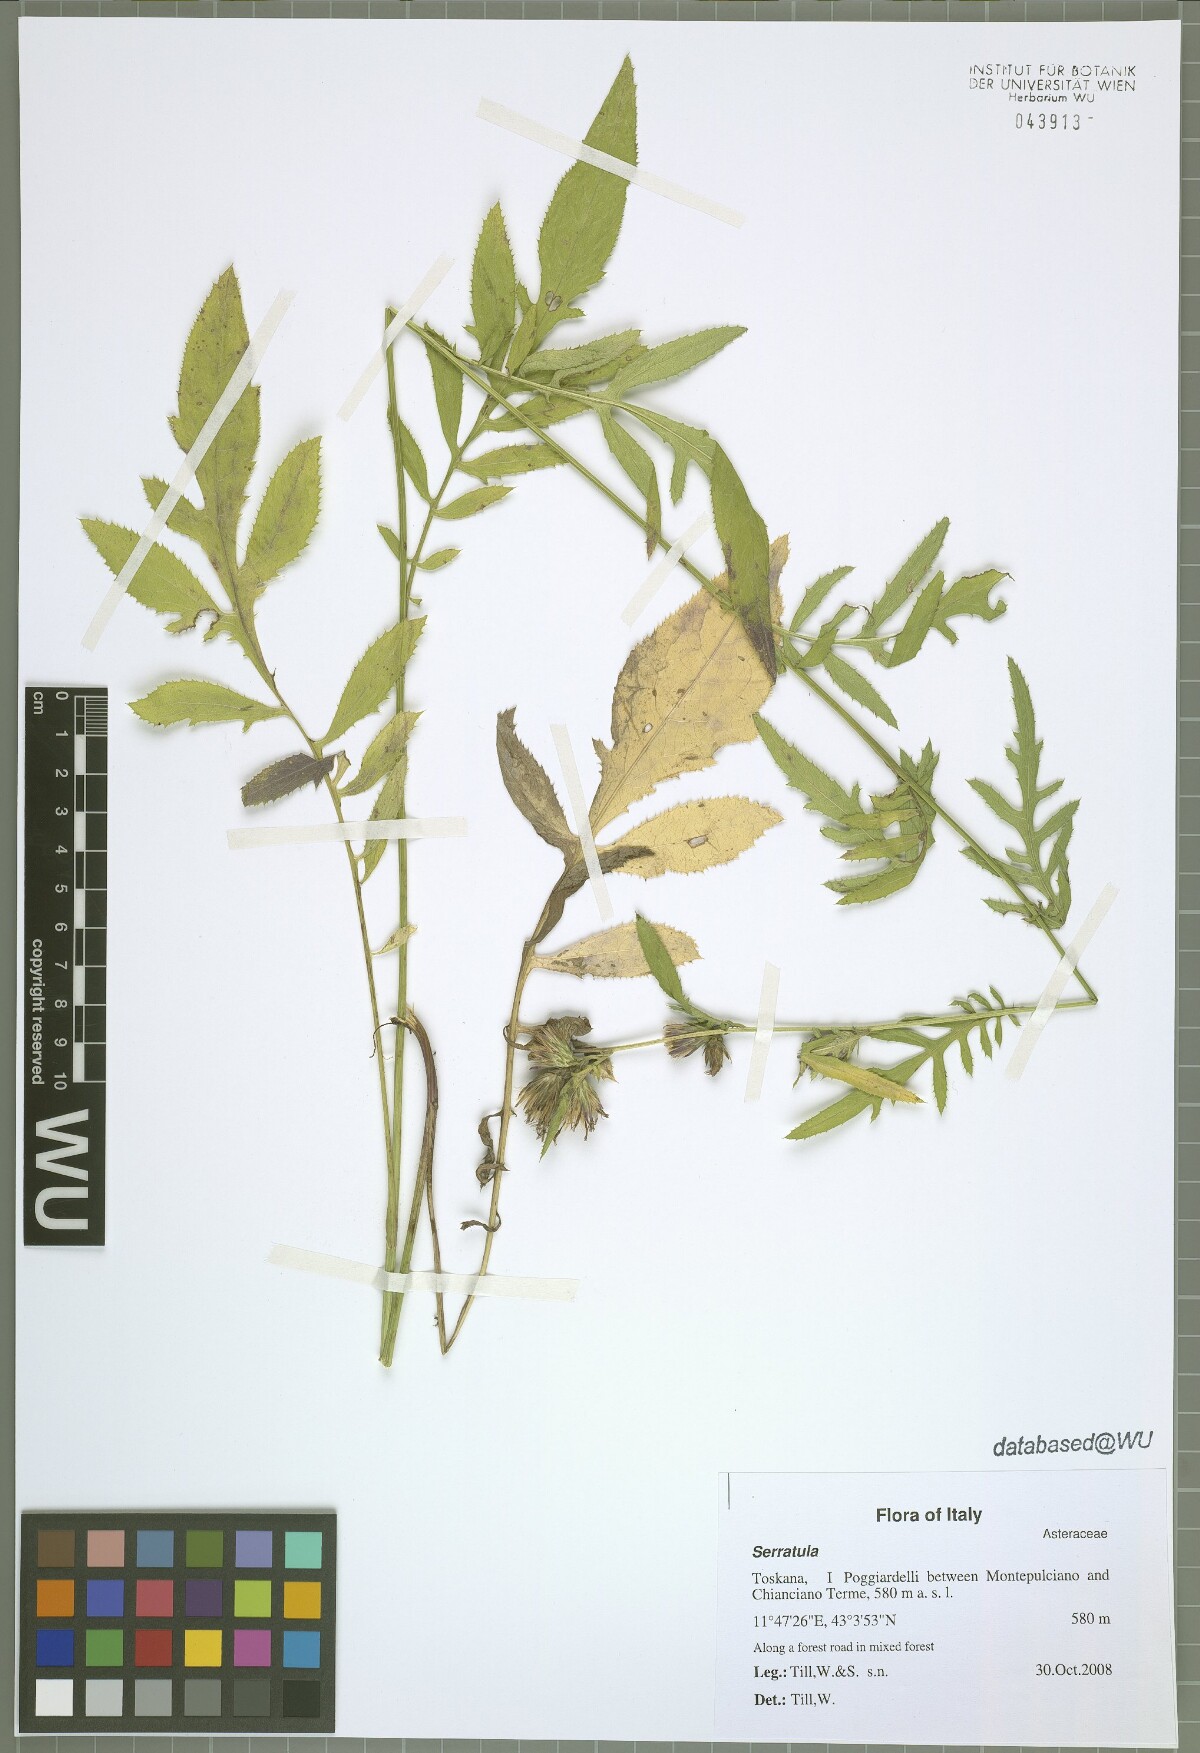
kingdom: Plantae
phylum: Tracheophyta
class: Magnoliopsida
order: Asterales
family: Asteraceae
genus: Serratula
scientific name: Serratula tinctoria
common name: Saw-wort
